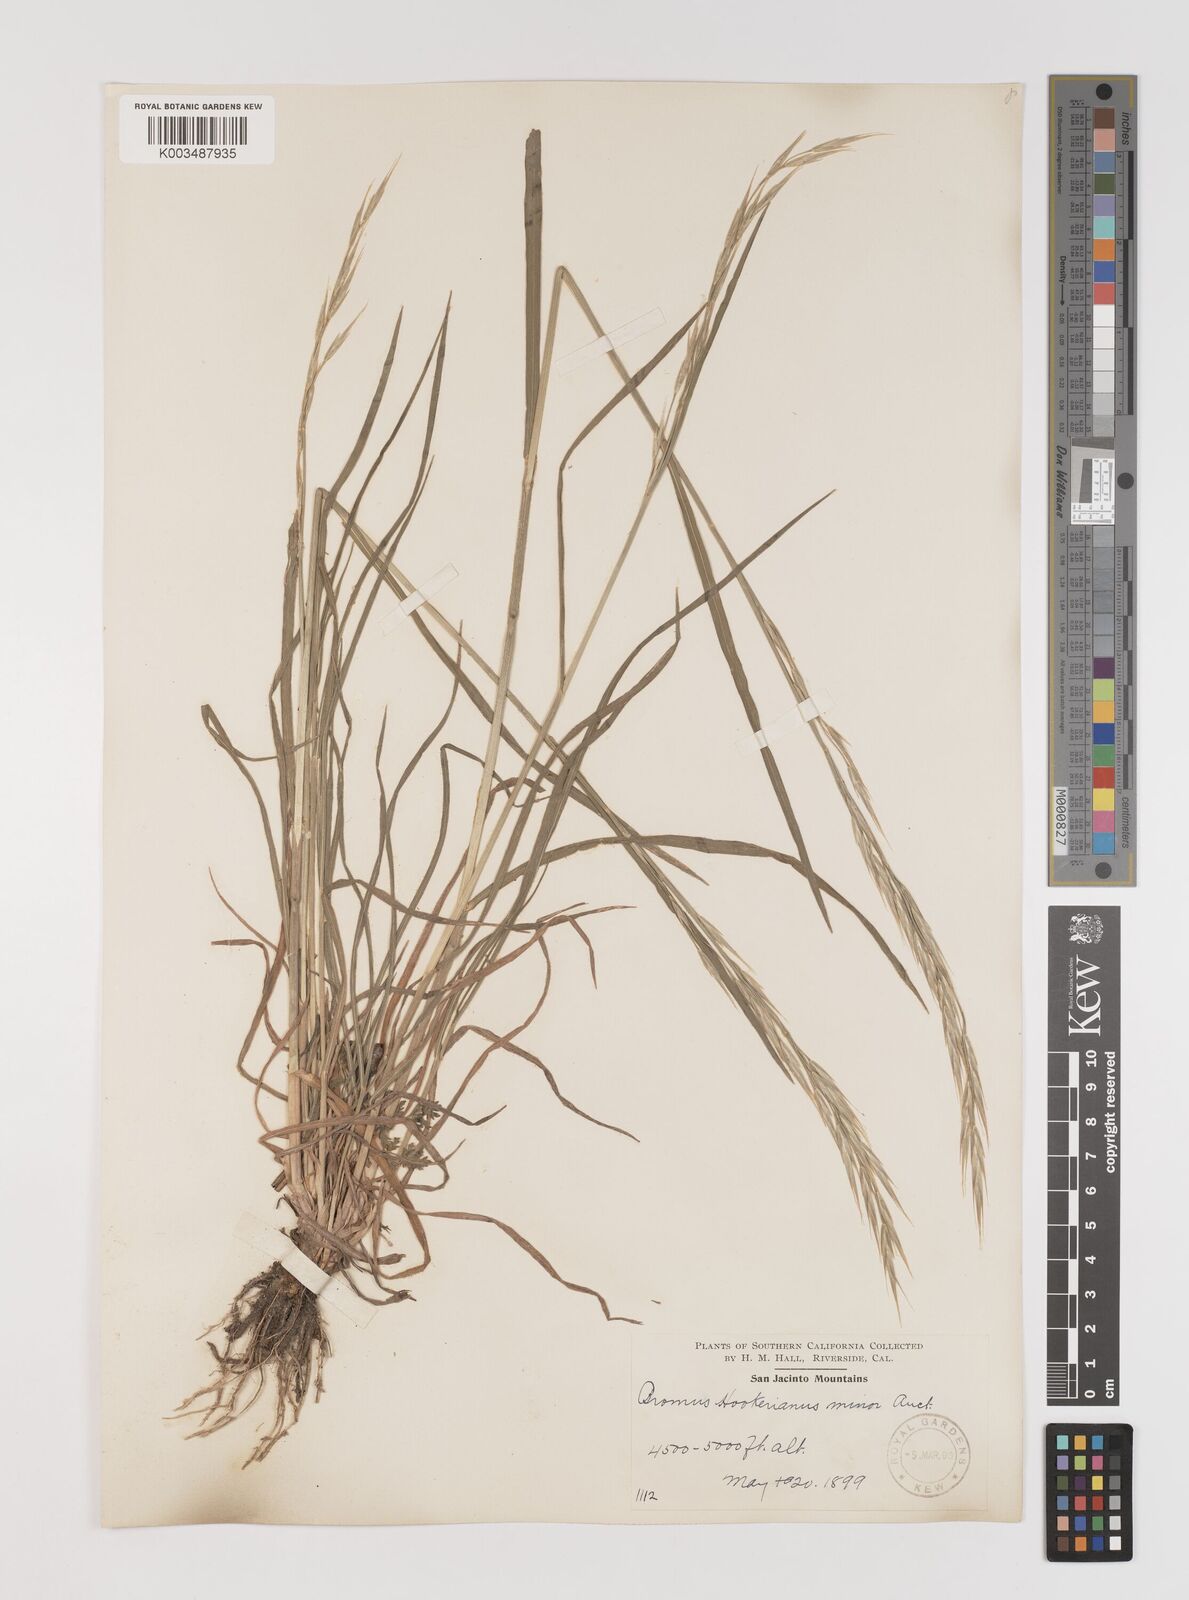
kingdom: Plantae
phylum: Tracheophyta
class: Liliopsida
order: Poales
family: Poaceae
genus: Bromus
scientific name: Bromus carinatus
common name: Mountain brome
